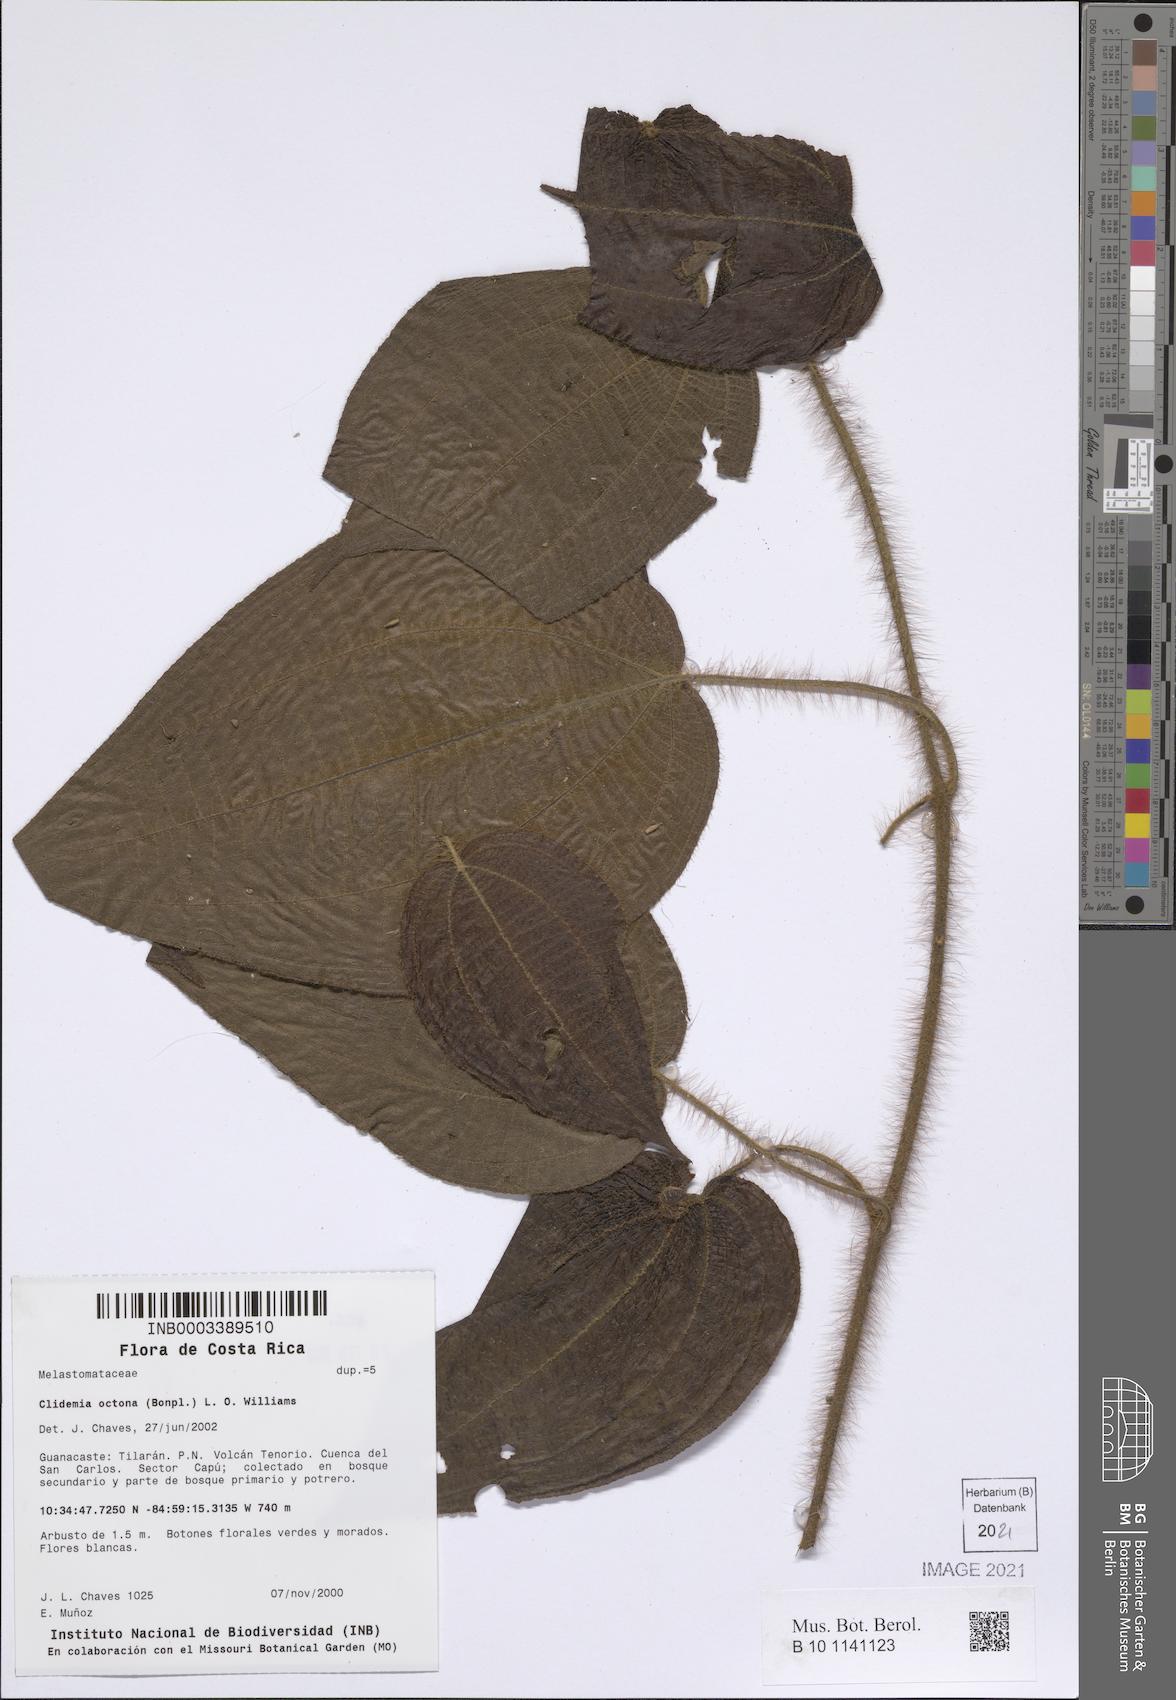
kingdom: Plantae
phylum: Tracheophyta
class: Magnoliopsida
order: Myrtales
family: Melastomataceae
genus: Miconia
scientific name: Miconia octona
